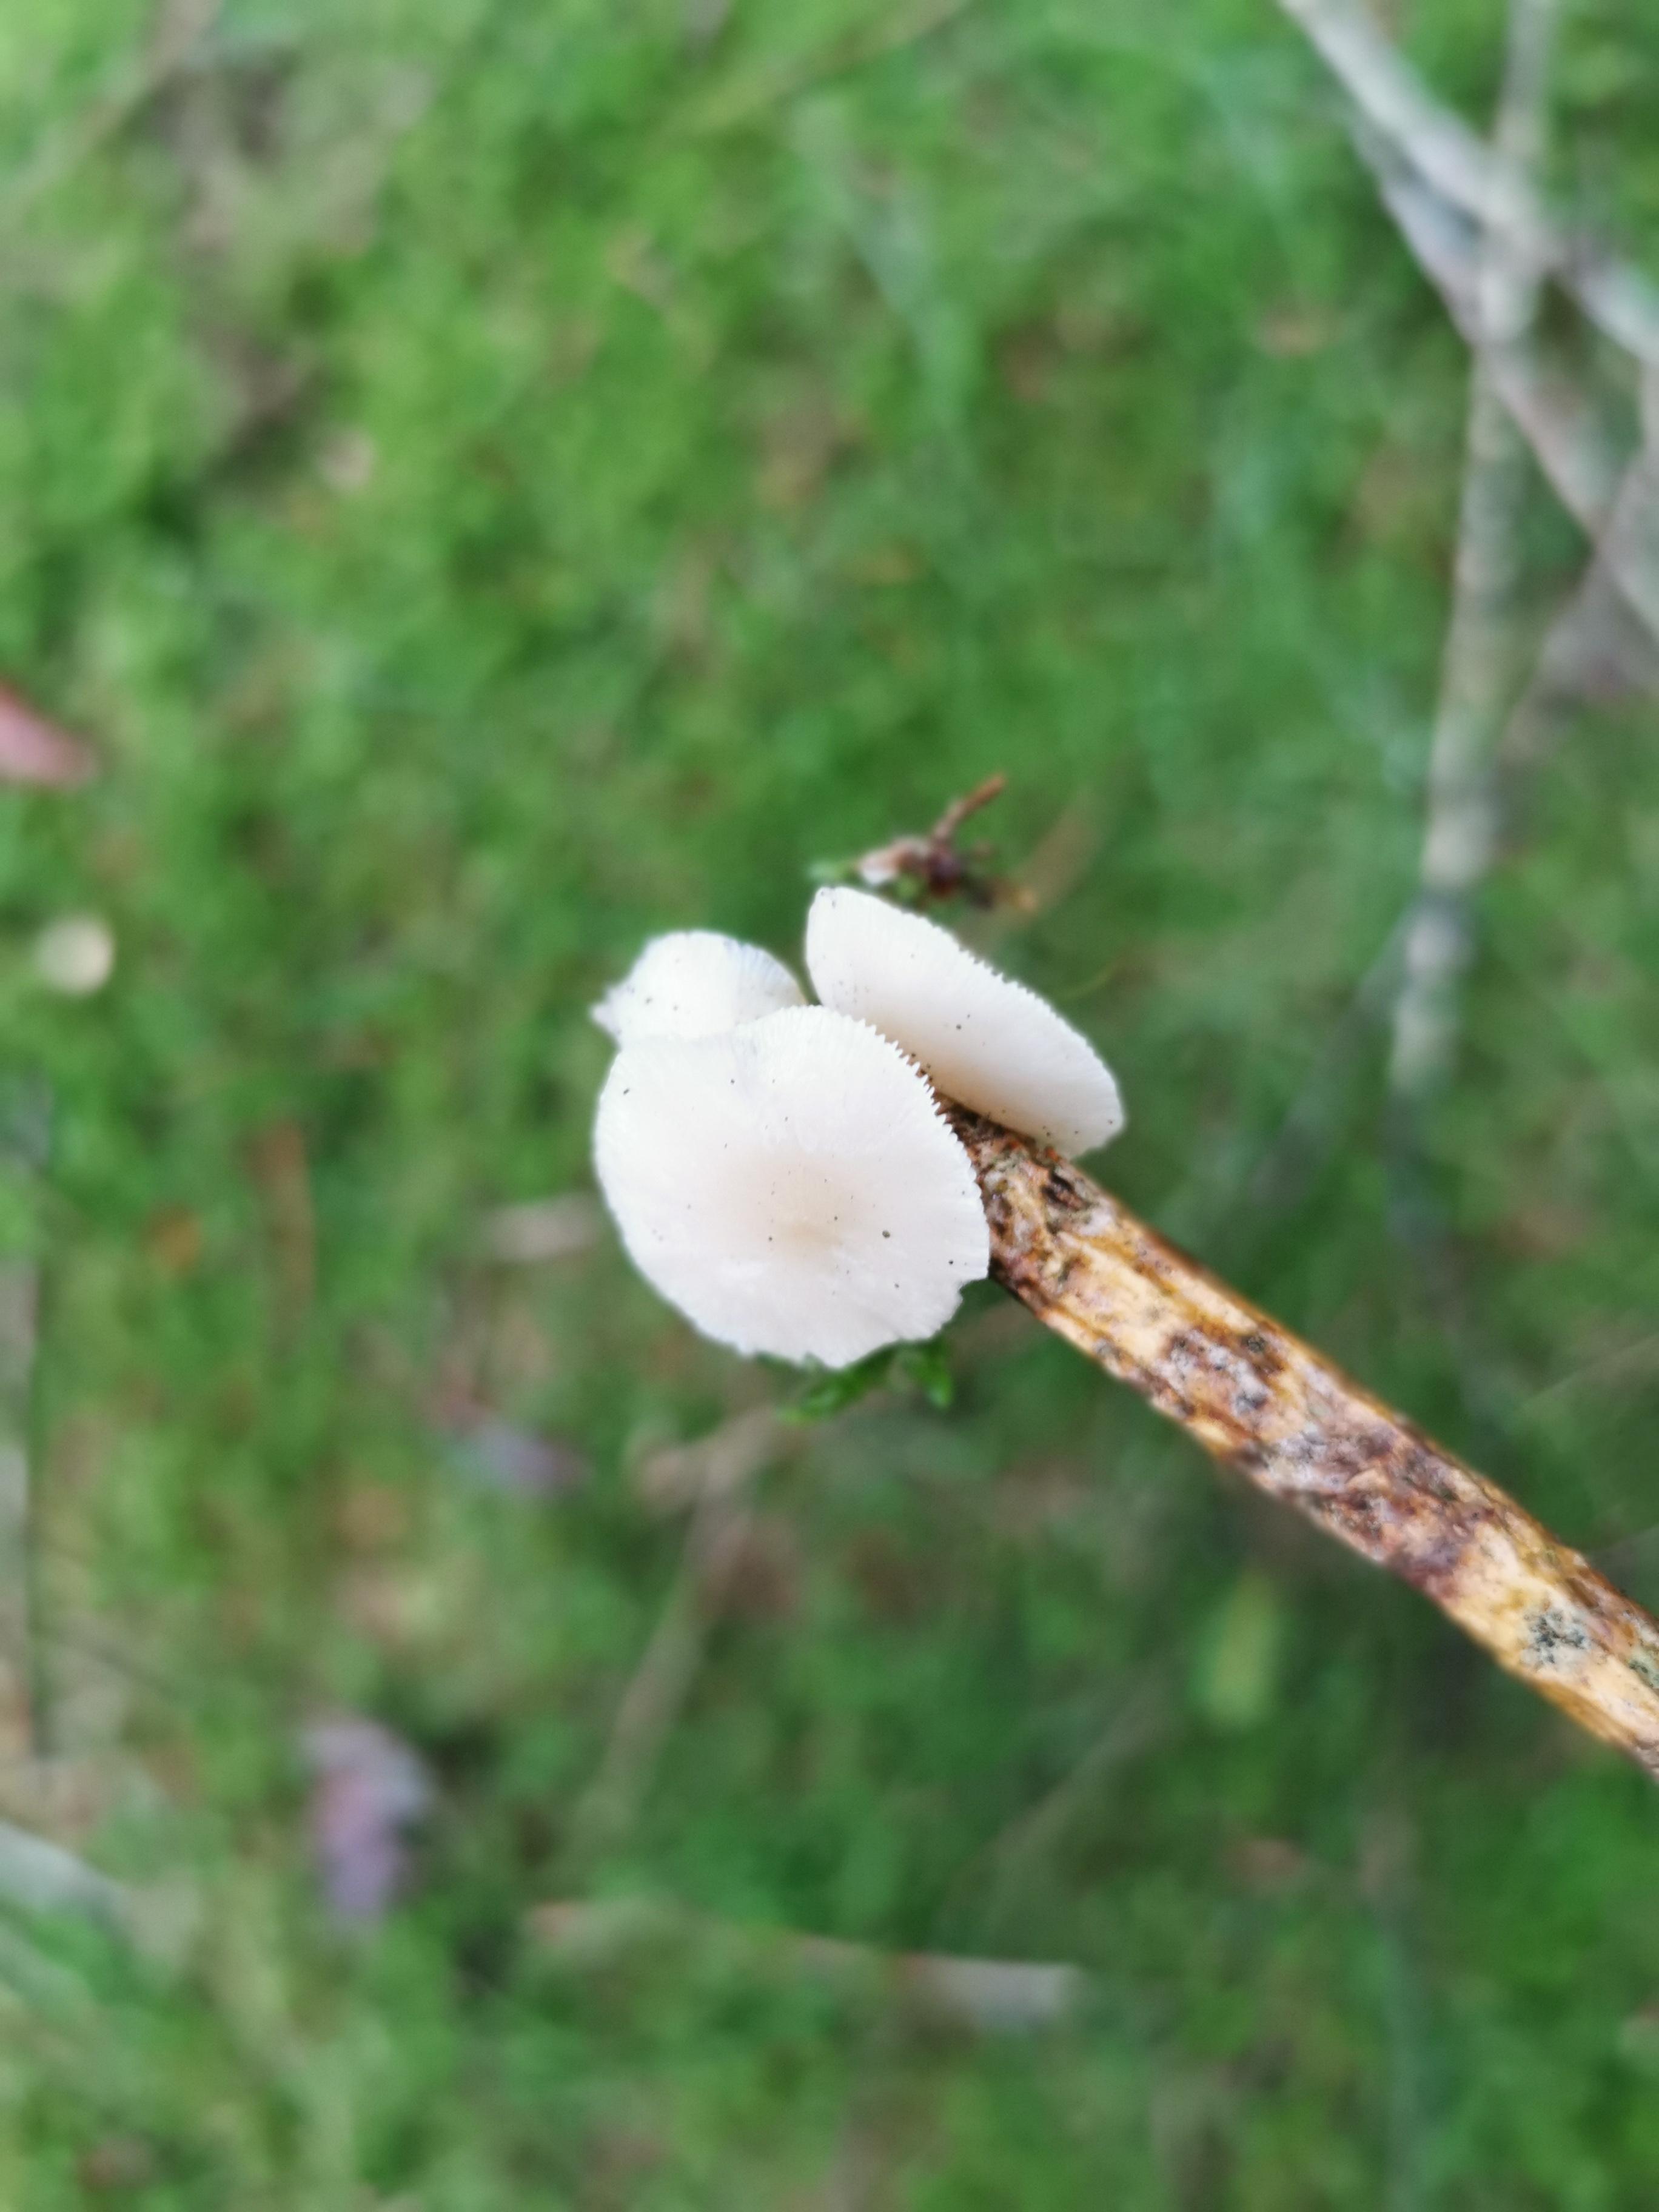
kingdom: Fungi
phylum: Basidiomycota
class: Agaricomycetes
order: Agaricales
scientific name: Agaricales
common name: champignonordenen
